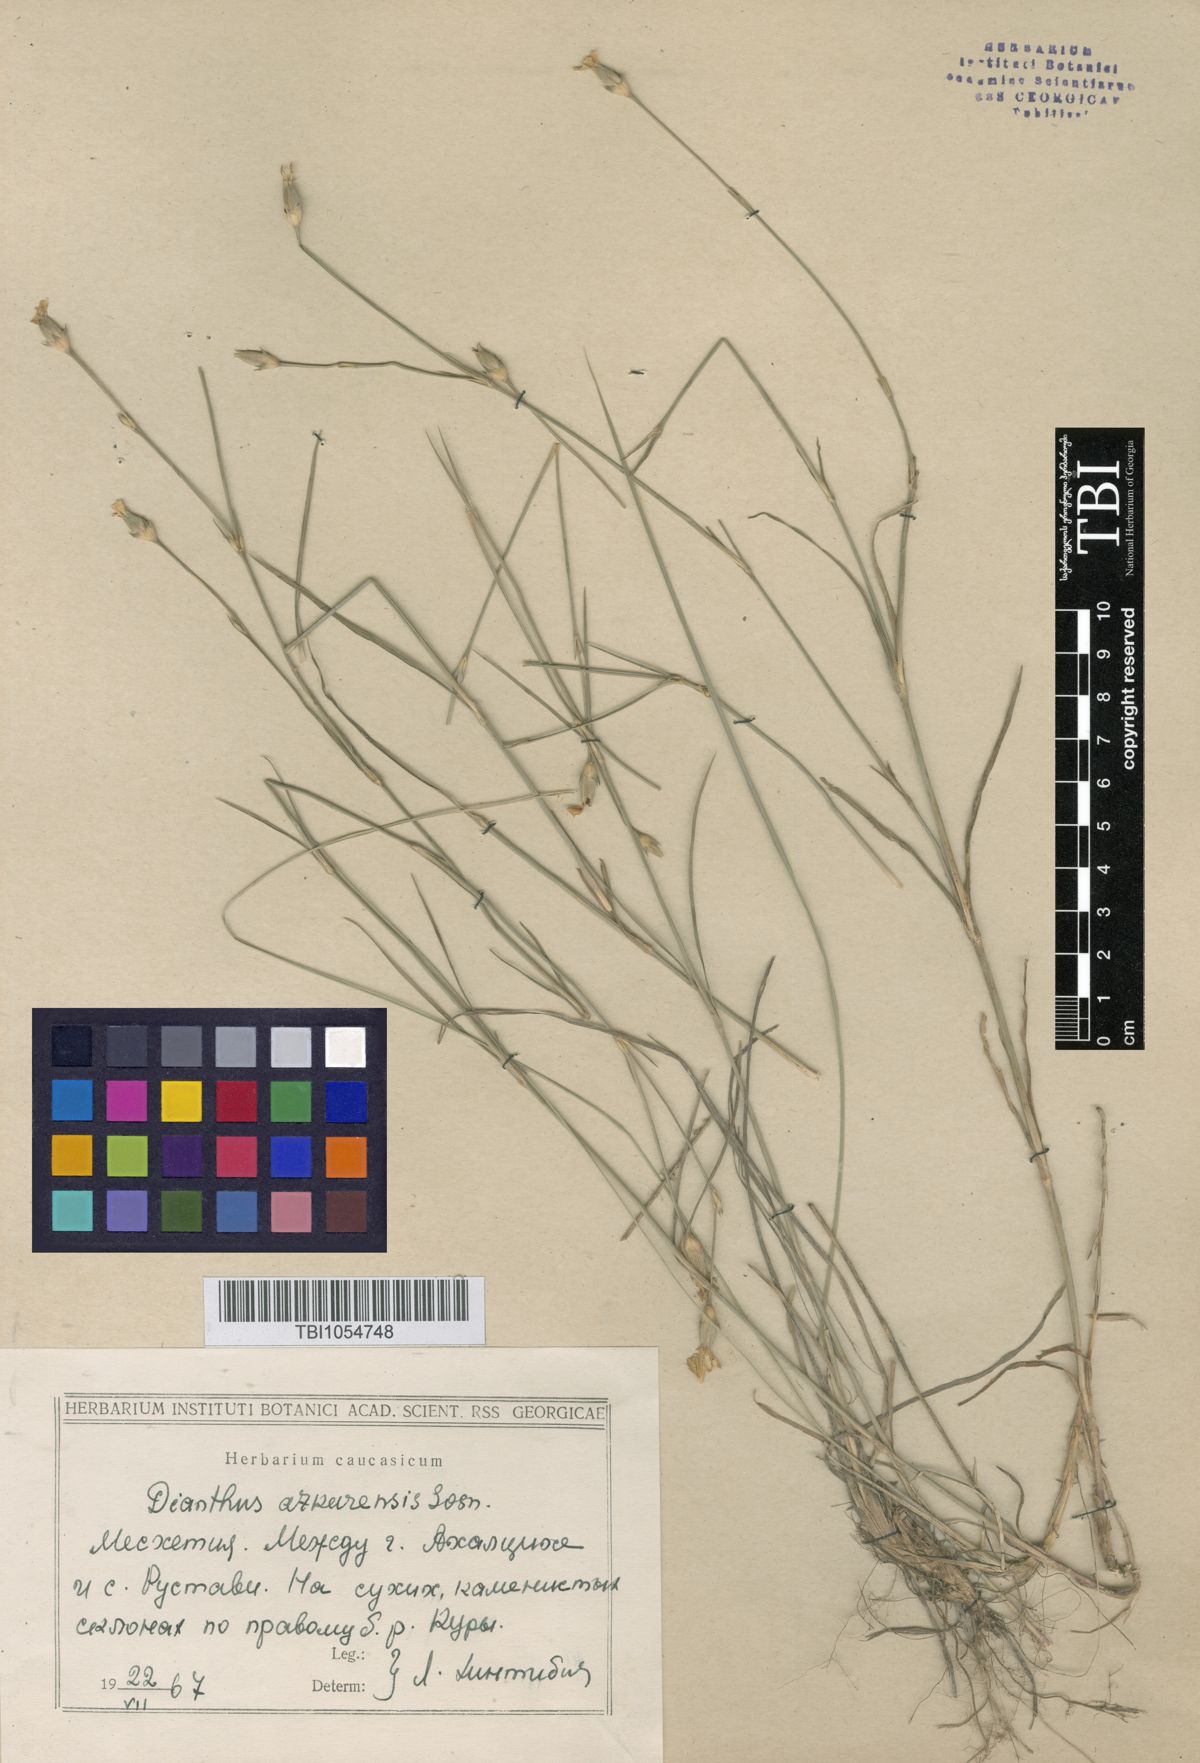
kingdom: Plantae
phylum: Tracheophyta
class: Magnoliopsida
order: Caryophyllales
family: Caryophyllaceae
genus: Dianthus
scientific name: Dianthus
